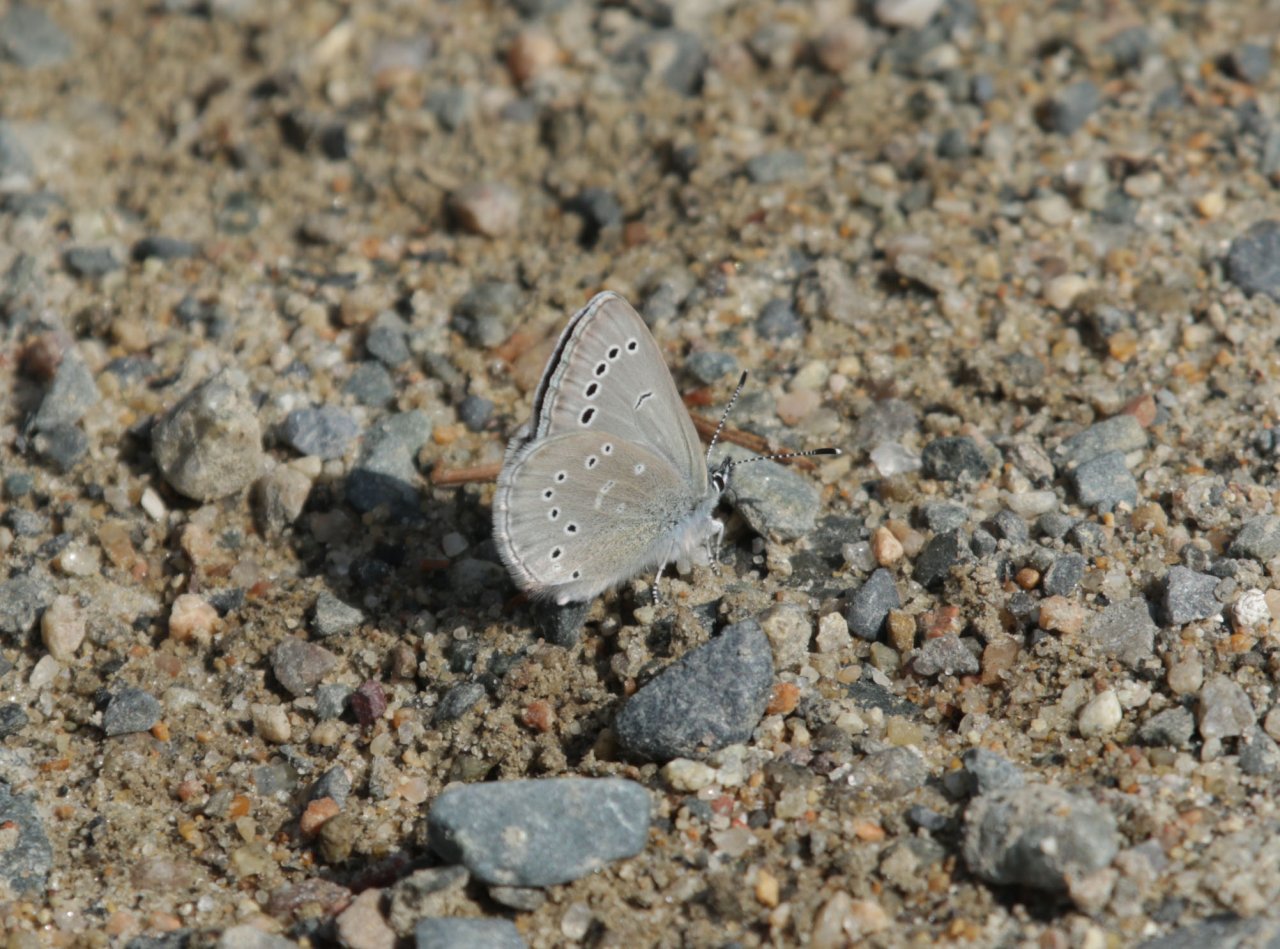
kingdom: Animalia
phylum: Arthropoda
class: Insecta
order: Lepidoptera
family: Lycaenidae
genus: Glaucopsyche
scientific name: Glaucopsyche lygdamus
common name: Silvery Blue
